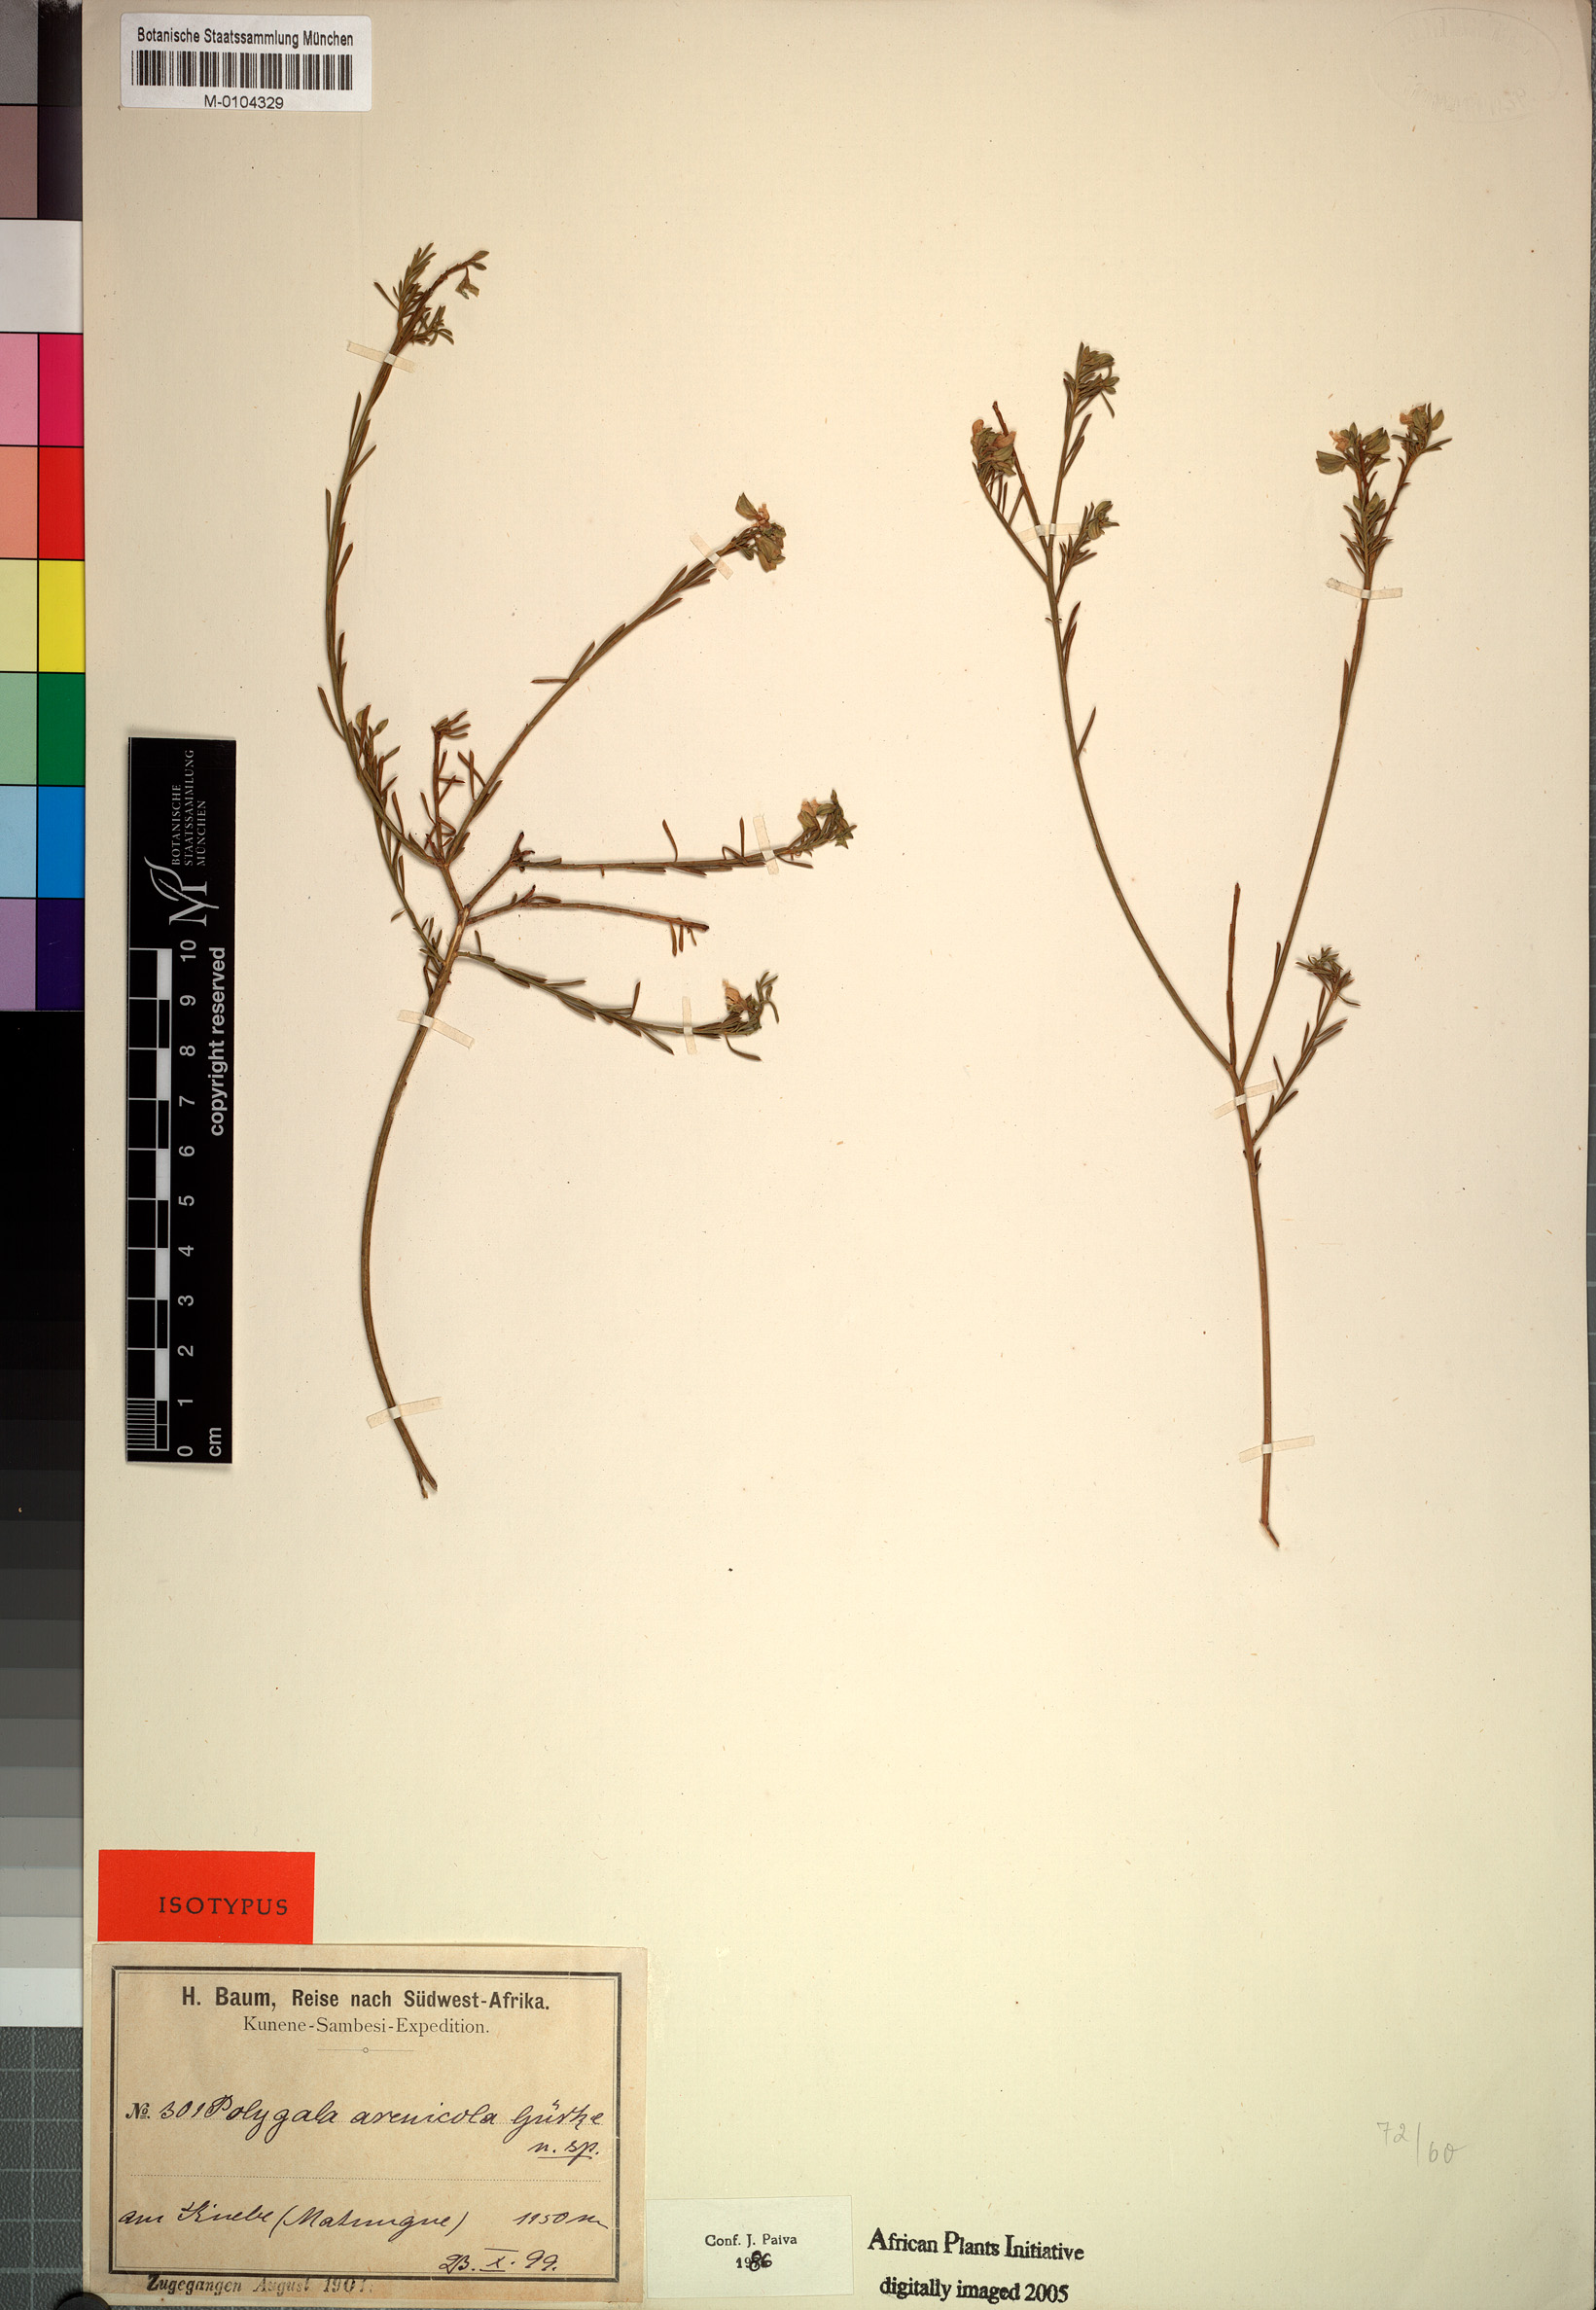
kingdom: Plantae
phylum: Tracheophyta
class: Magnoliopsida
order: Fabales
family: Polygalaceae
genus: Polygala
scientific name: Polygala arenicola
